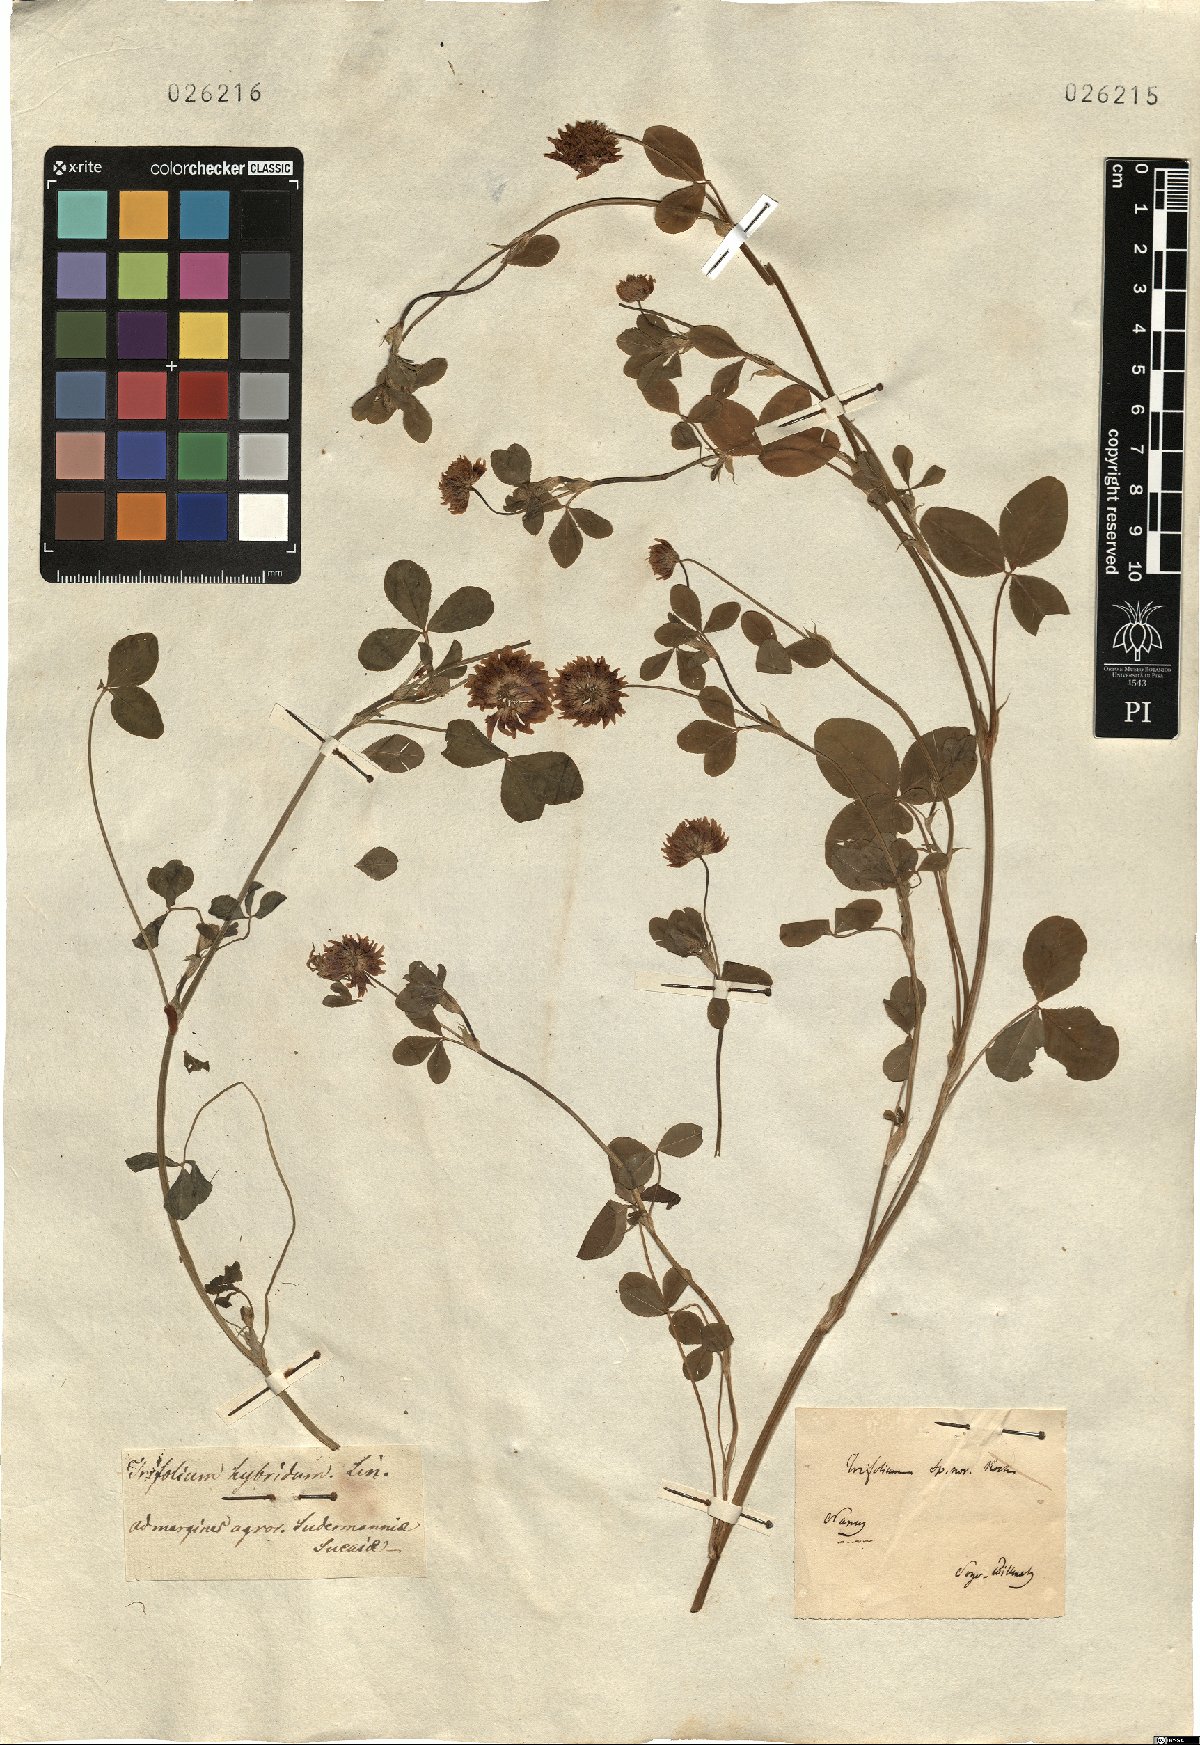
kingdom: Plantae
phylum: Tracheophyta
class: Magnoliopsida
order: Fabales
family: Fabaceae
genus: Trifolium
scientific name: Trifolium hybridum
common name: Alsike clover
